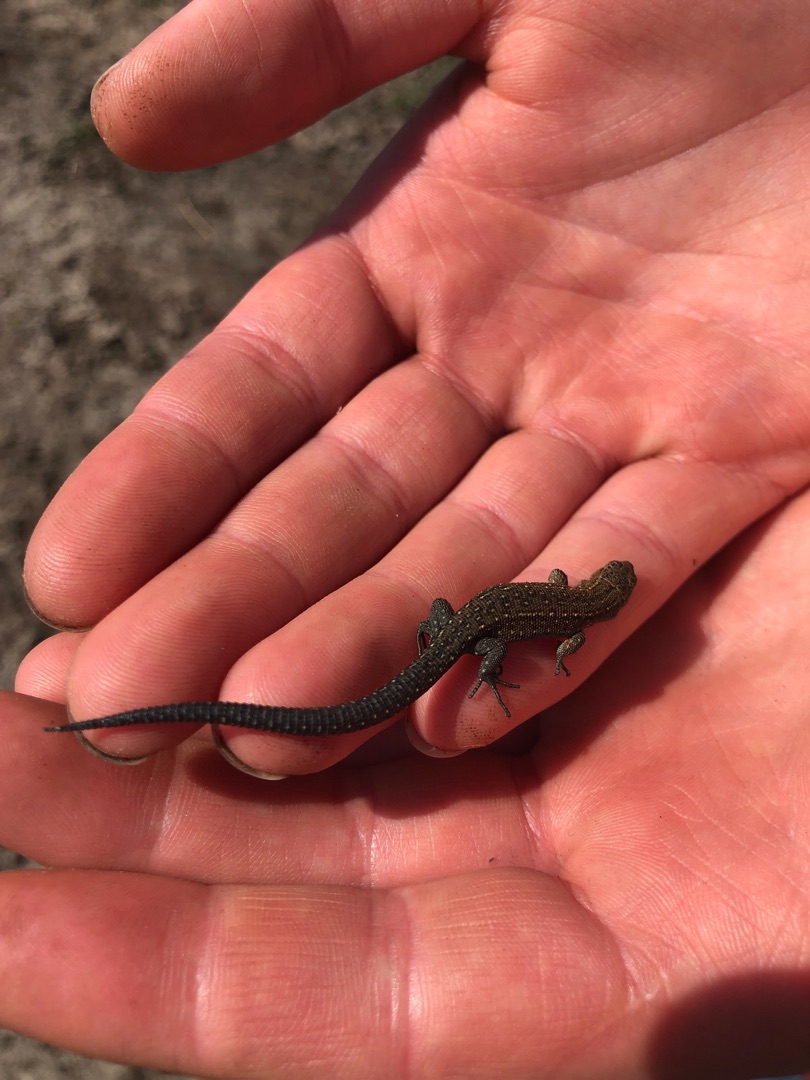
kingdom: Animalia
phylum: Chordata
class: Squamata
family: Lacertidae
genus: Zootoca
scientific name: Zootoca vivipara
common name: Skovfirben
